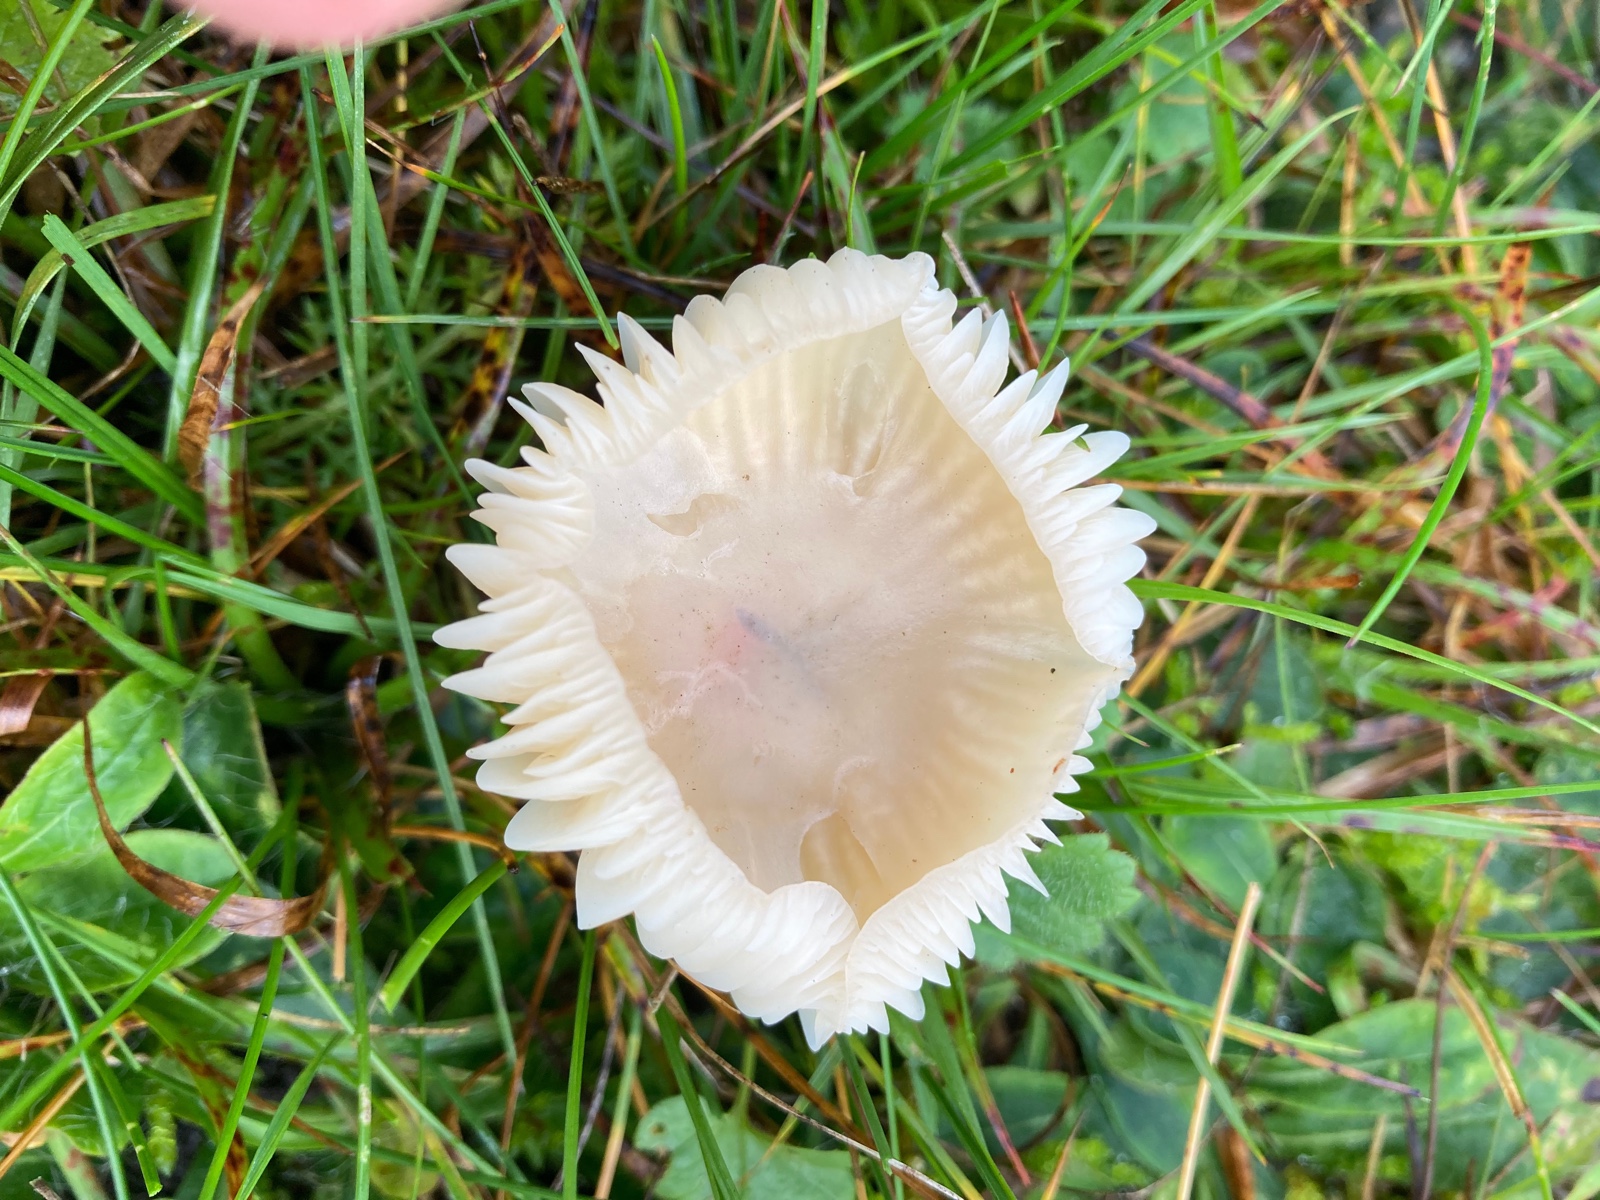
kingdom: Fungi
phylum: Basidiomycota
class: Agaricomycetes
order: Agaricales
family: Hygrophoraceae
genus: Cuphophyllus
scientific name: Cuphophyllus
